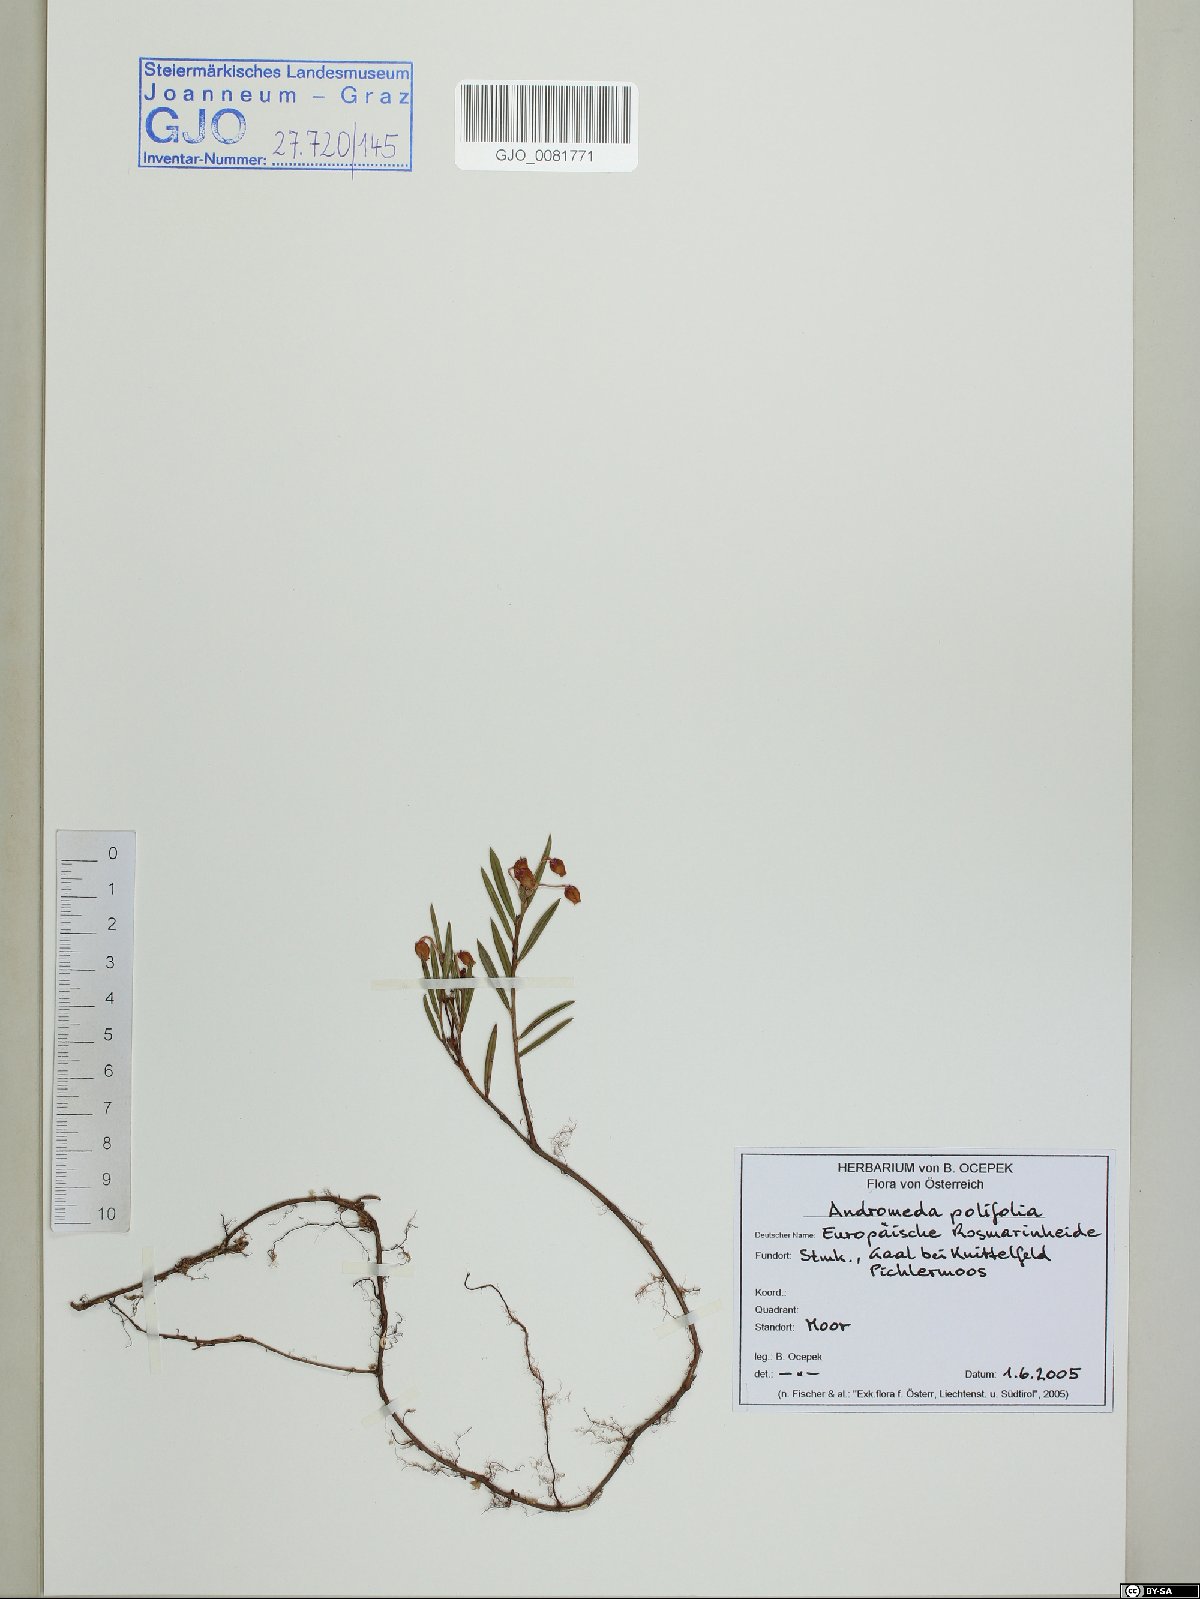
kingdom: Plantae
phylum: Tracheophyta
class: Magnoliopsida
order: Ericales
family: Ericaceae
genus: Andromeda
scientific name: Andromeda polifolia
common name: Bog-rosemary
